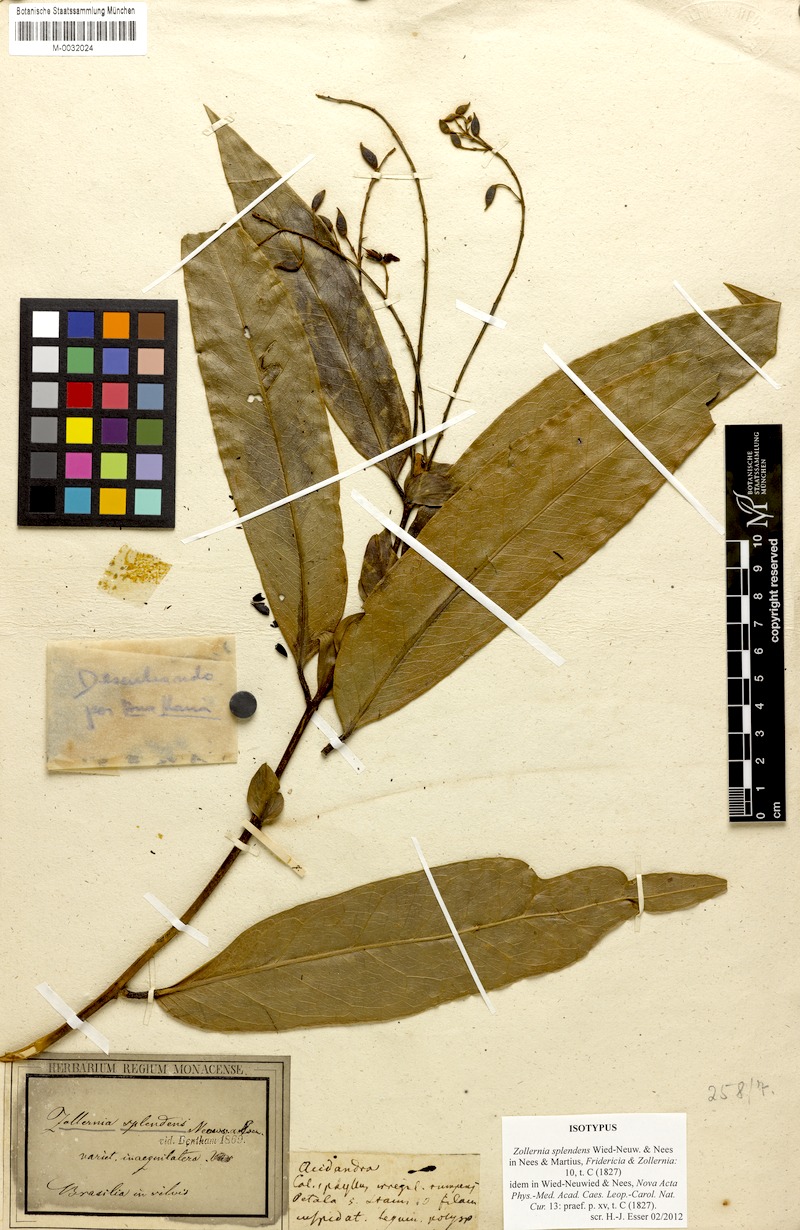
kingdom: Plantae
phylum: Tracheophyta
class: Magnoliopsida
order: Fabales
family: Fabaceae
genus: Zollernia
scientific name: Zollernia
